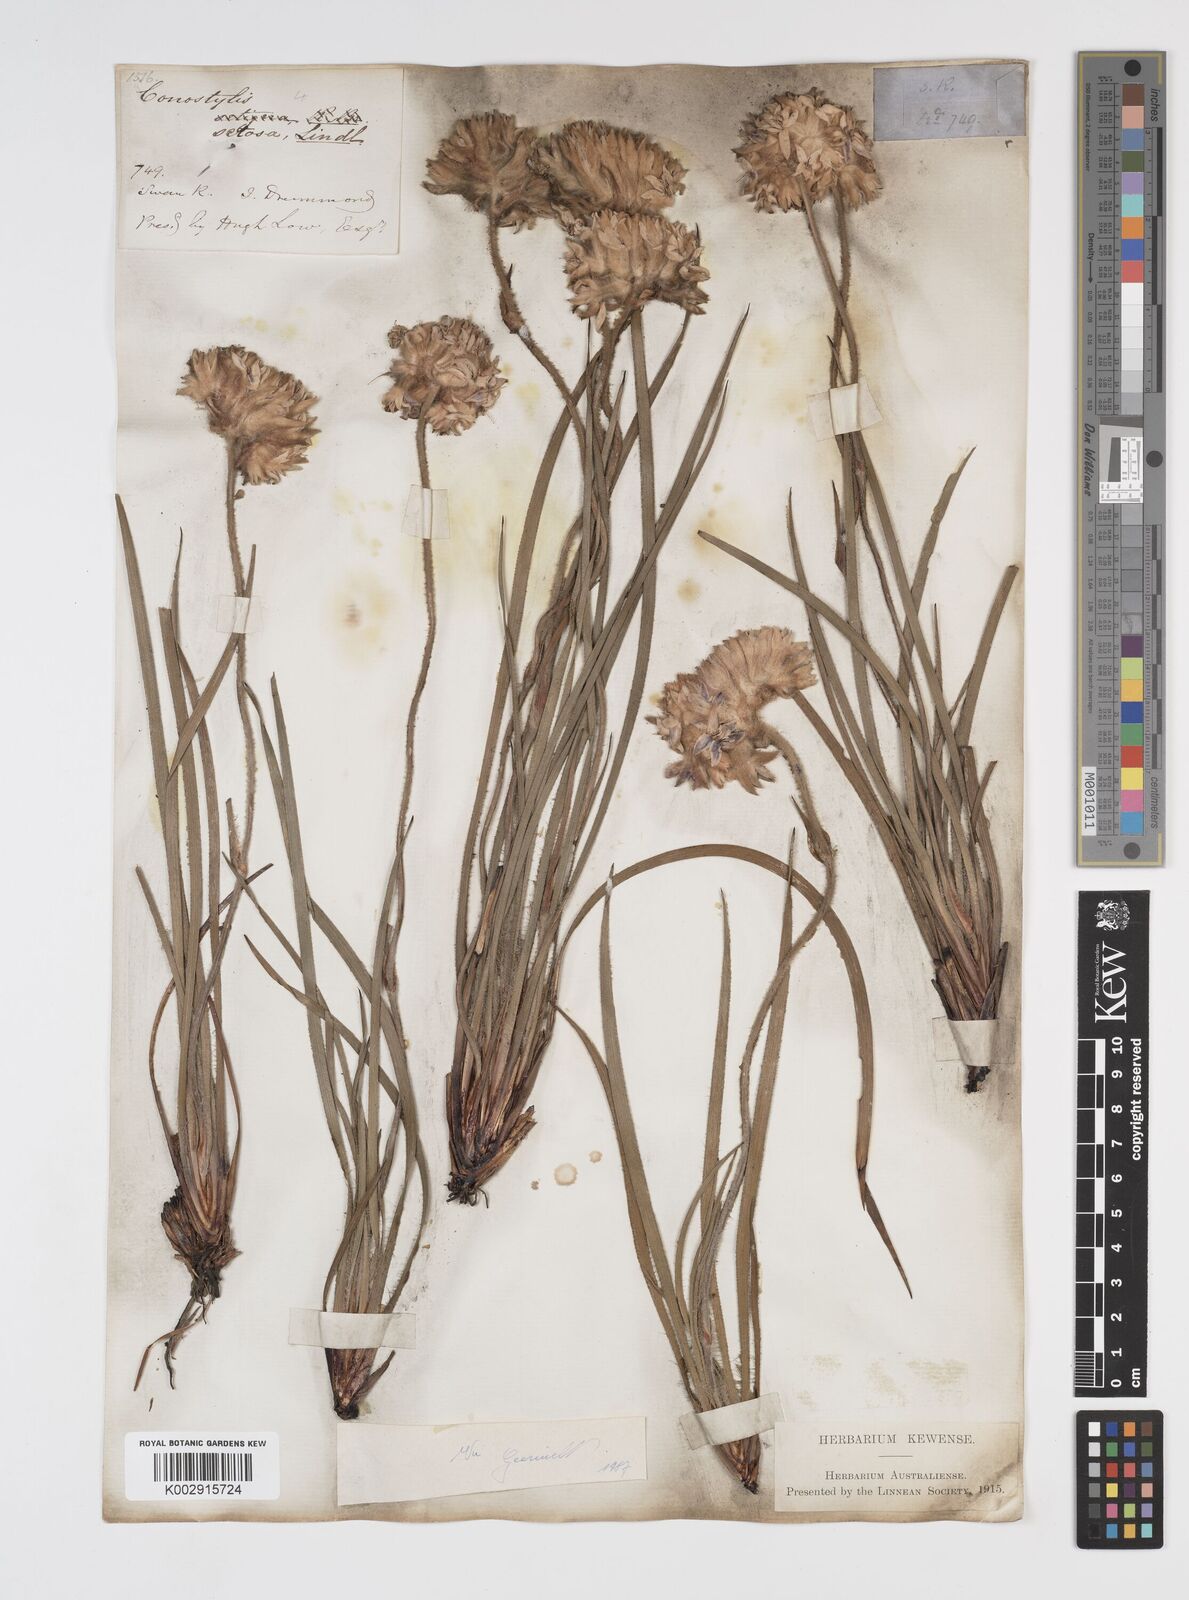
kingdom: Plantae
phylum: Tracheophyta
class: Liliopsida
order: Commelinales
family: Haemodoraceae
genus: Conostylis
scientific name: Conostylis setosa
